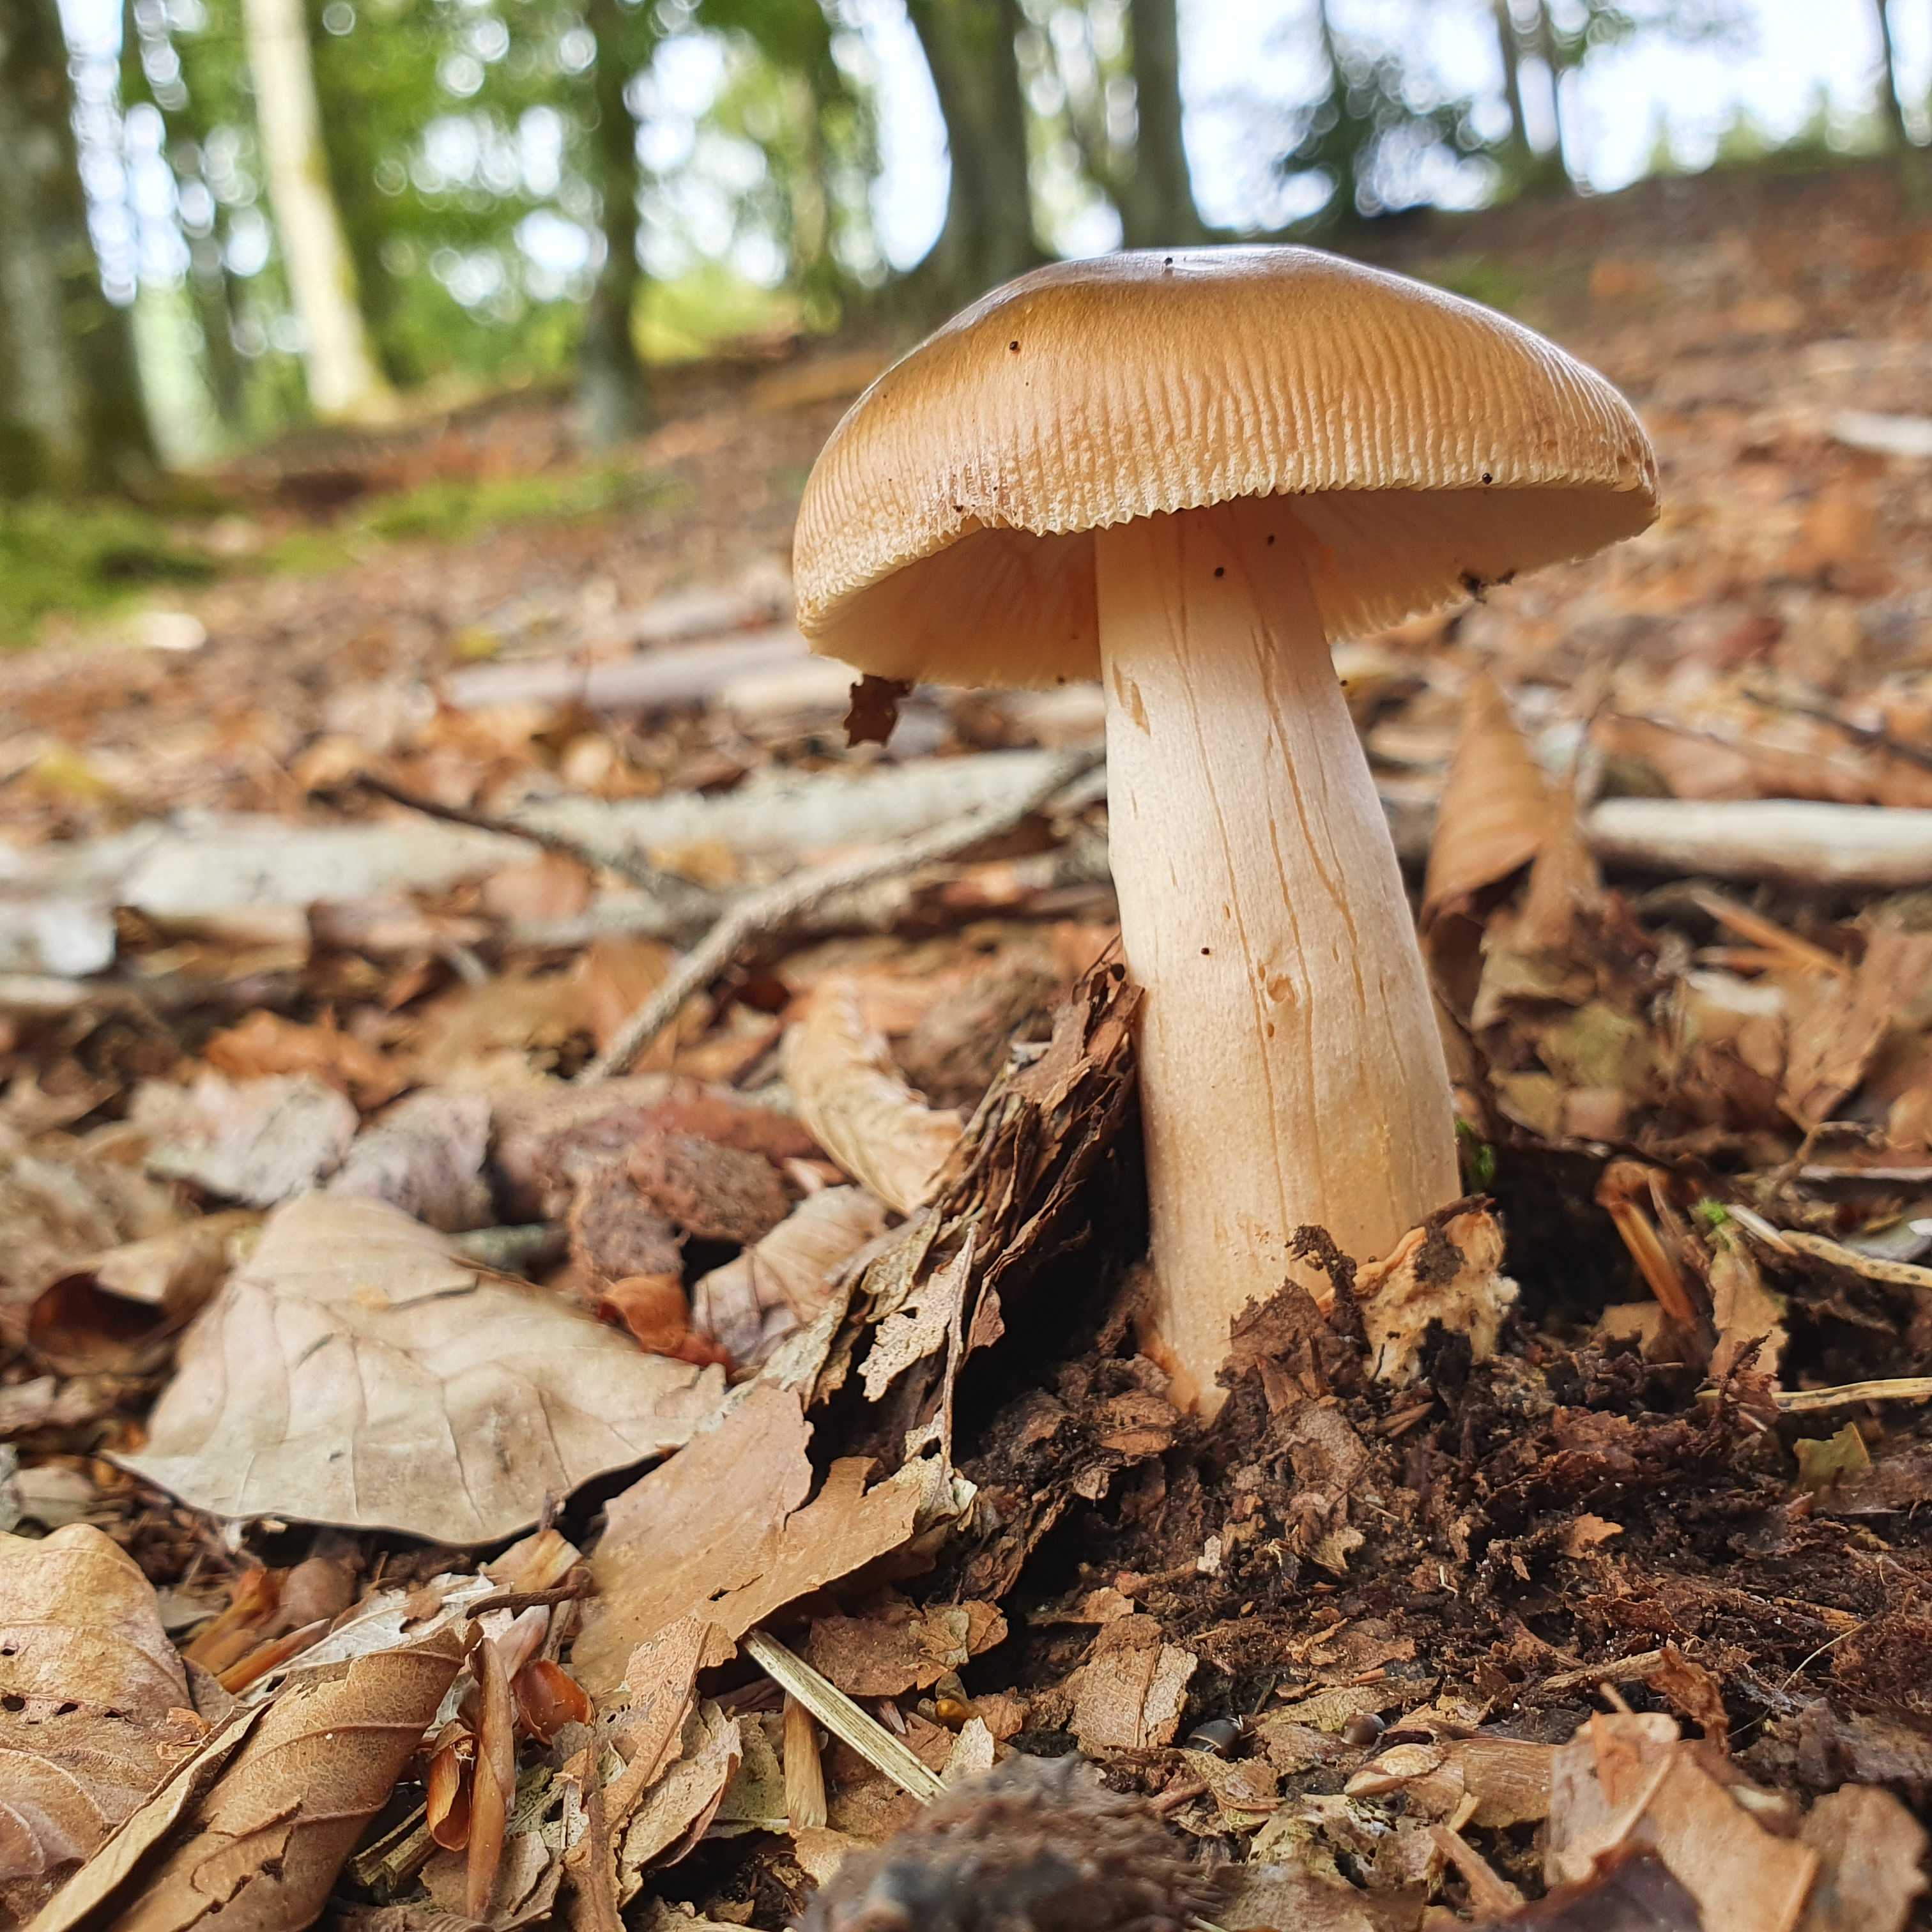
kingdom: Fungi
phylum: Basidiomycota
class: Agaricomycetes
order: Agaricales
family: Amanitaceae
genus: Amanita
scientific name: Amanita fulva
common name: brun kam-fluesvamp
